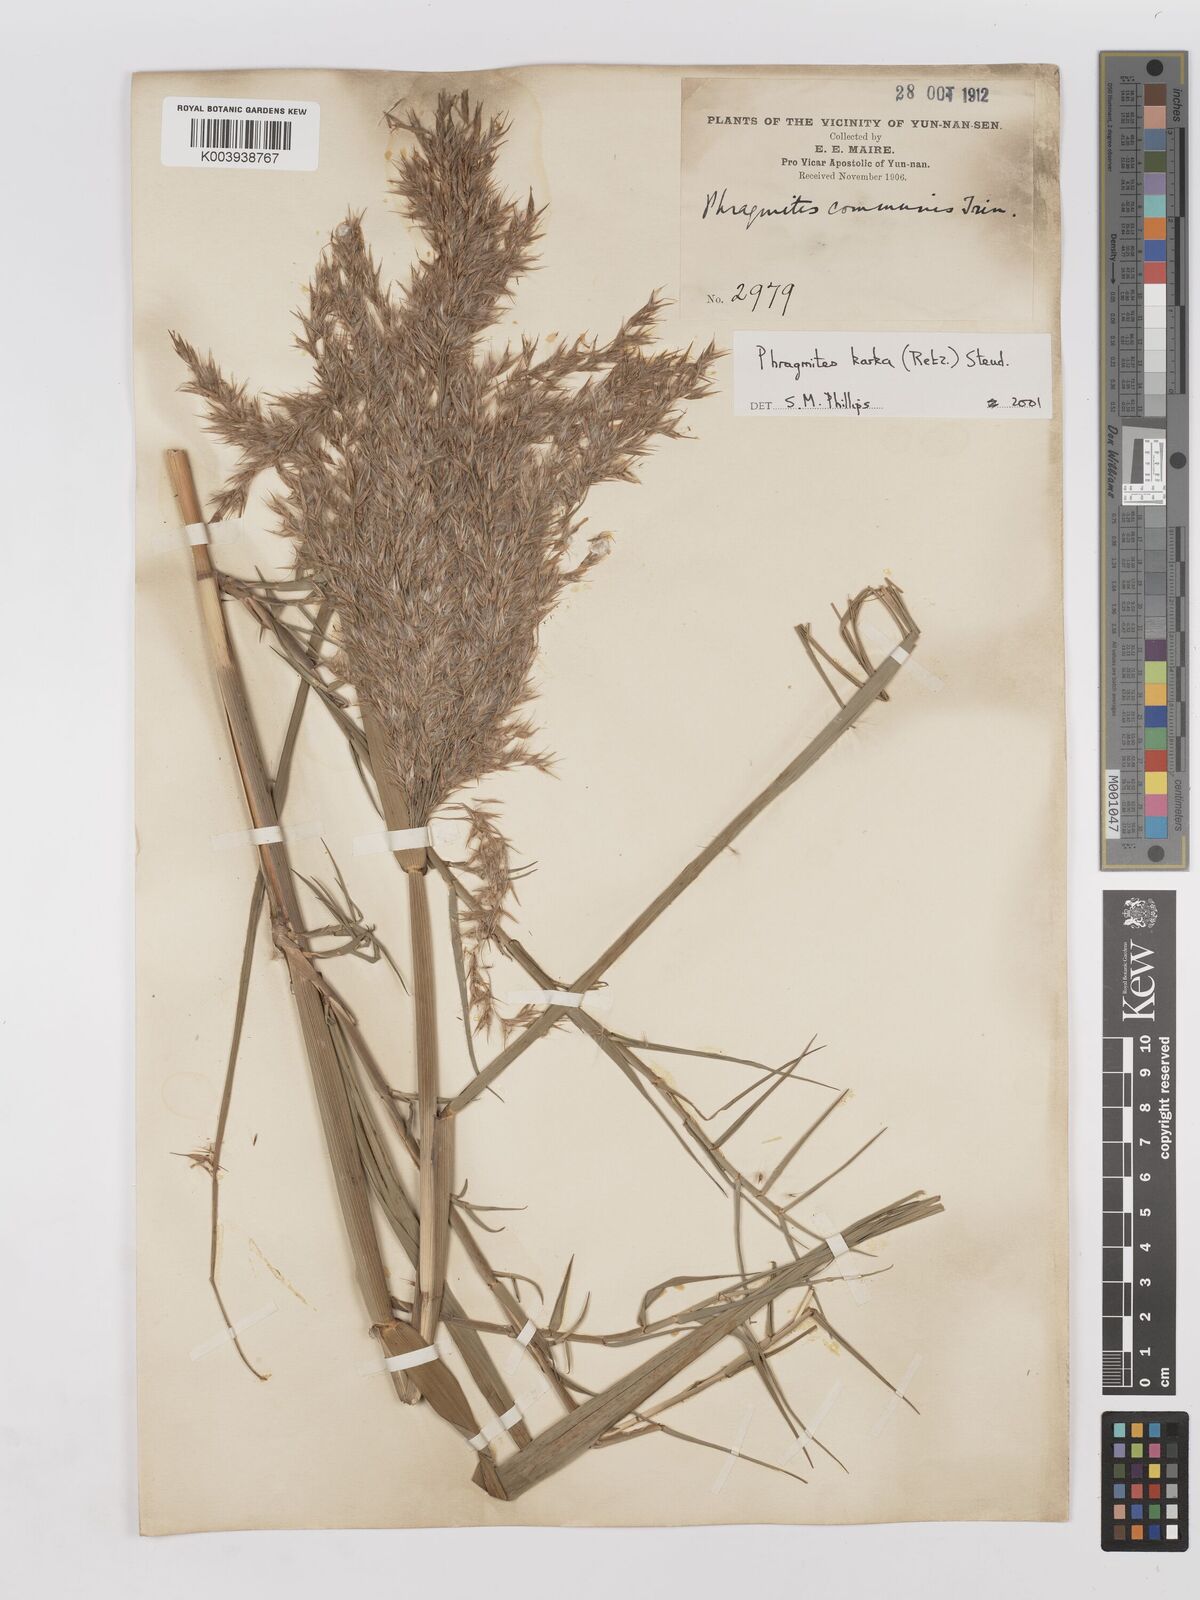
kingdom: Plantae
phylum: Tracheophyta
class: Liliopsida
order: Poales
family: Poaceae
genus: Phragmites
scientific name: Phragmites karka
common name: Tropical reed
